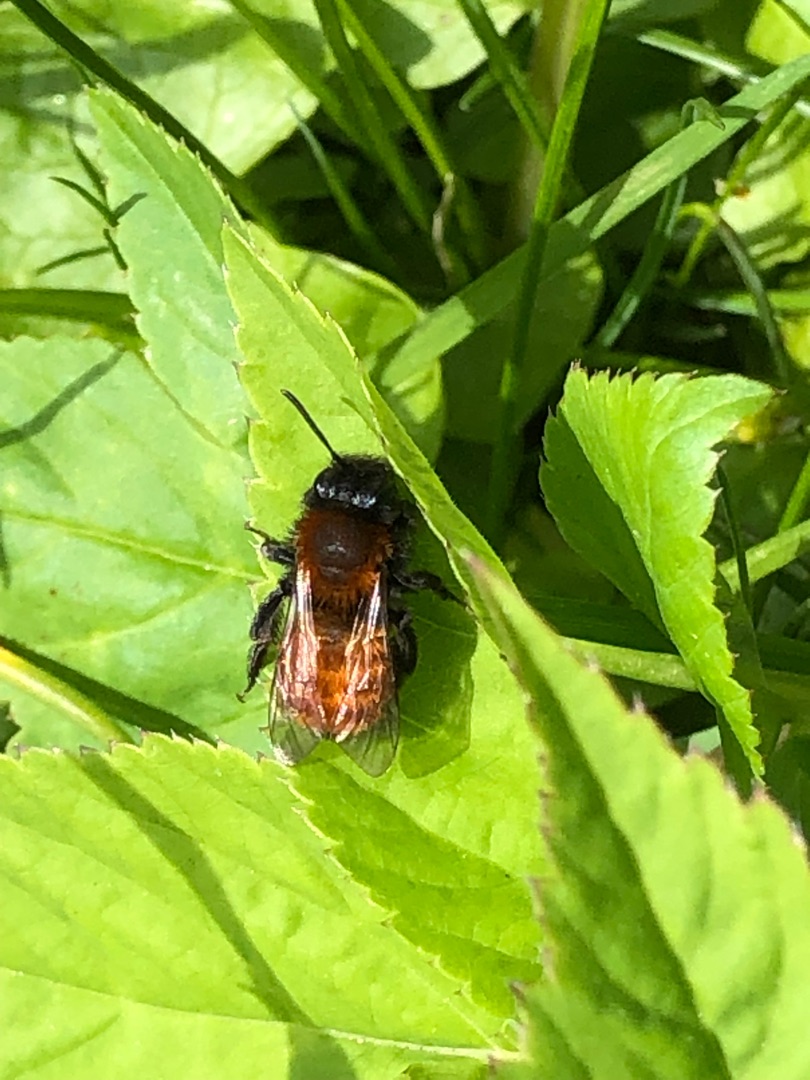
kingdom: Animalia
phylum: Arthropoda
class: Insecta
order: Hymenoptera
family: Andrenidae
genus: Andrena
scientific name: Andrena fulva
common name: Rødpelset jordbi
